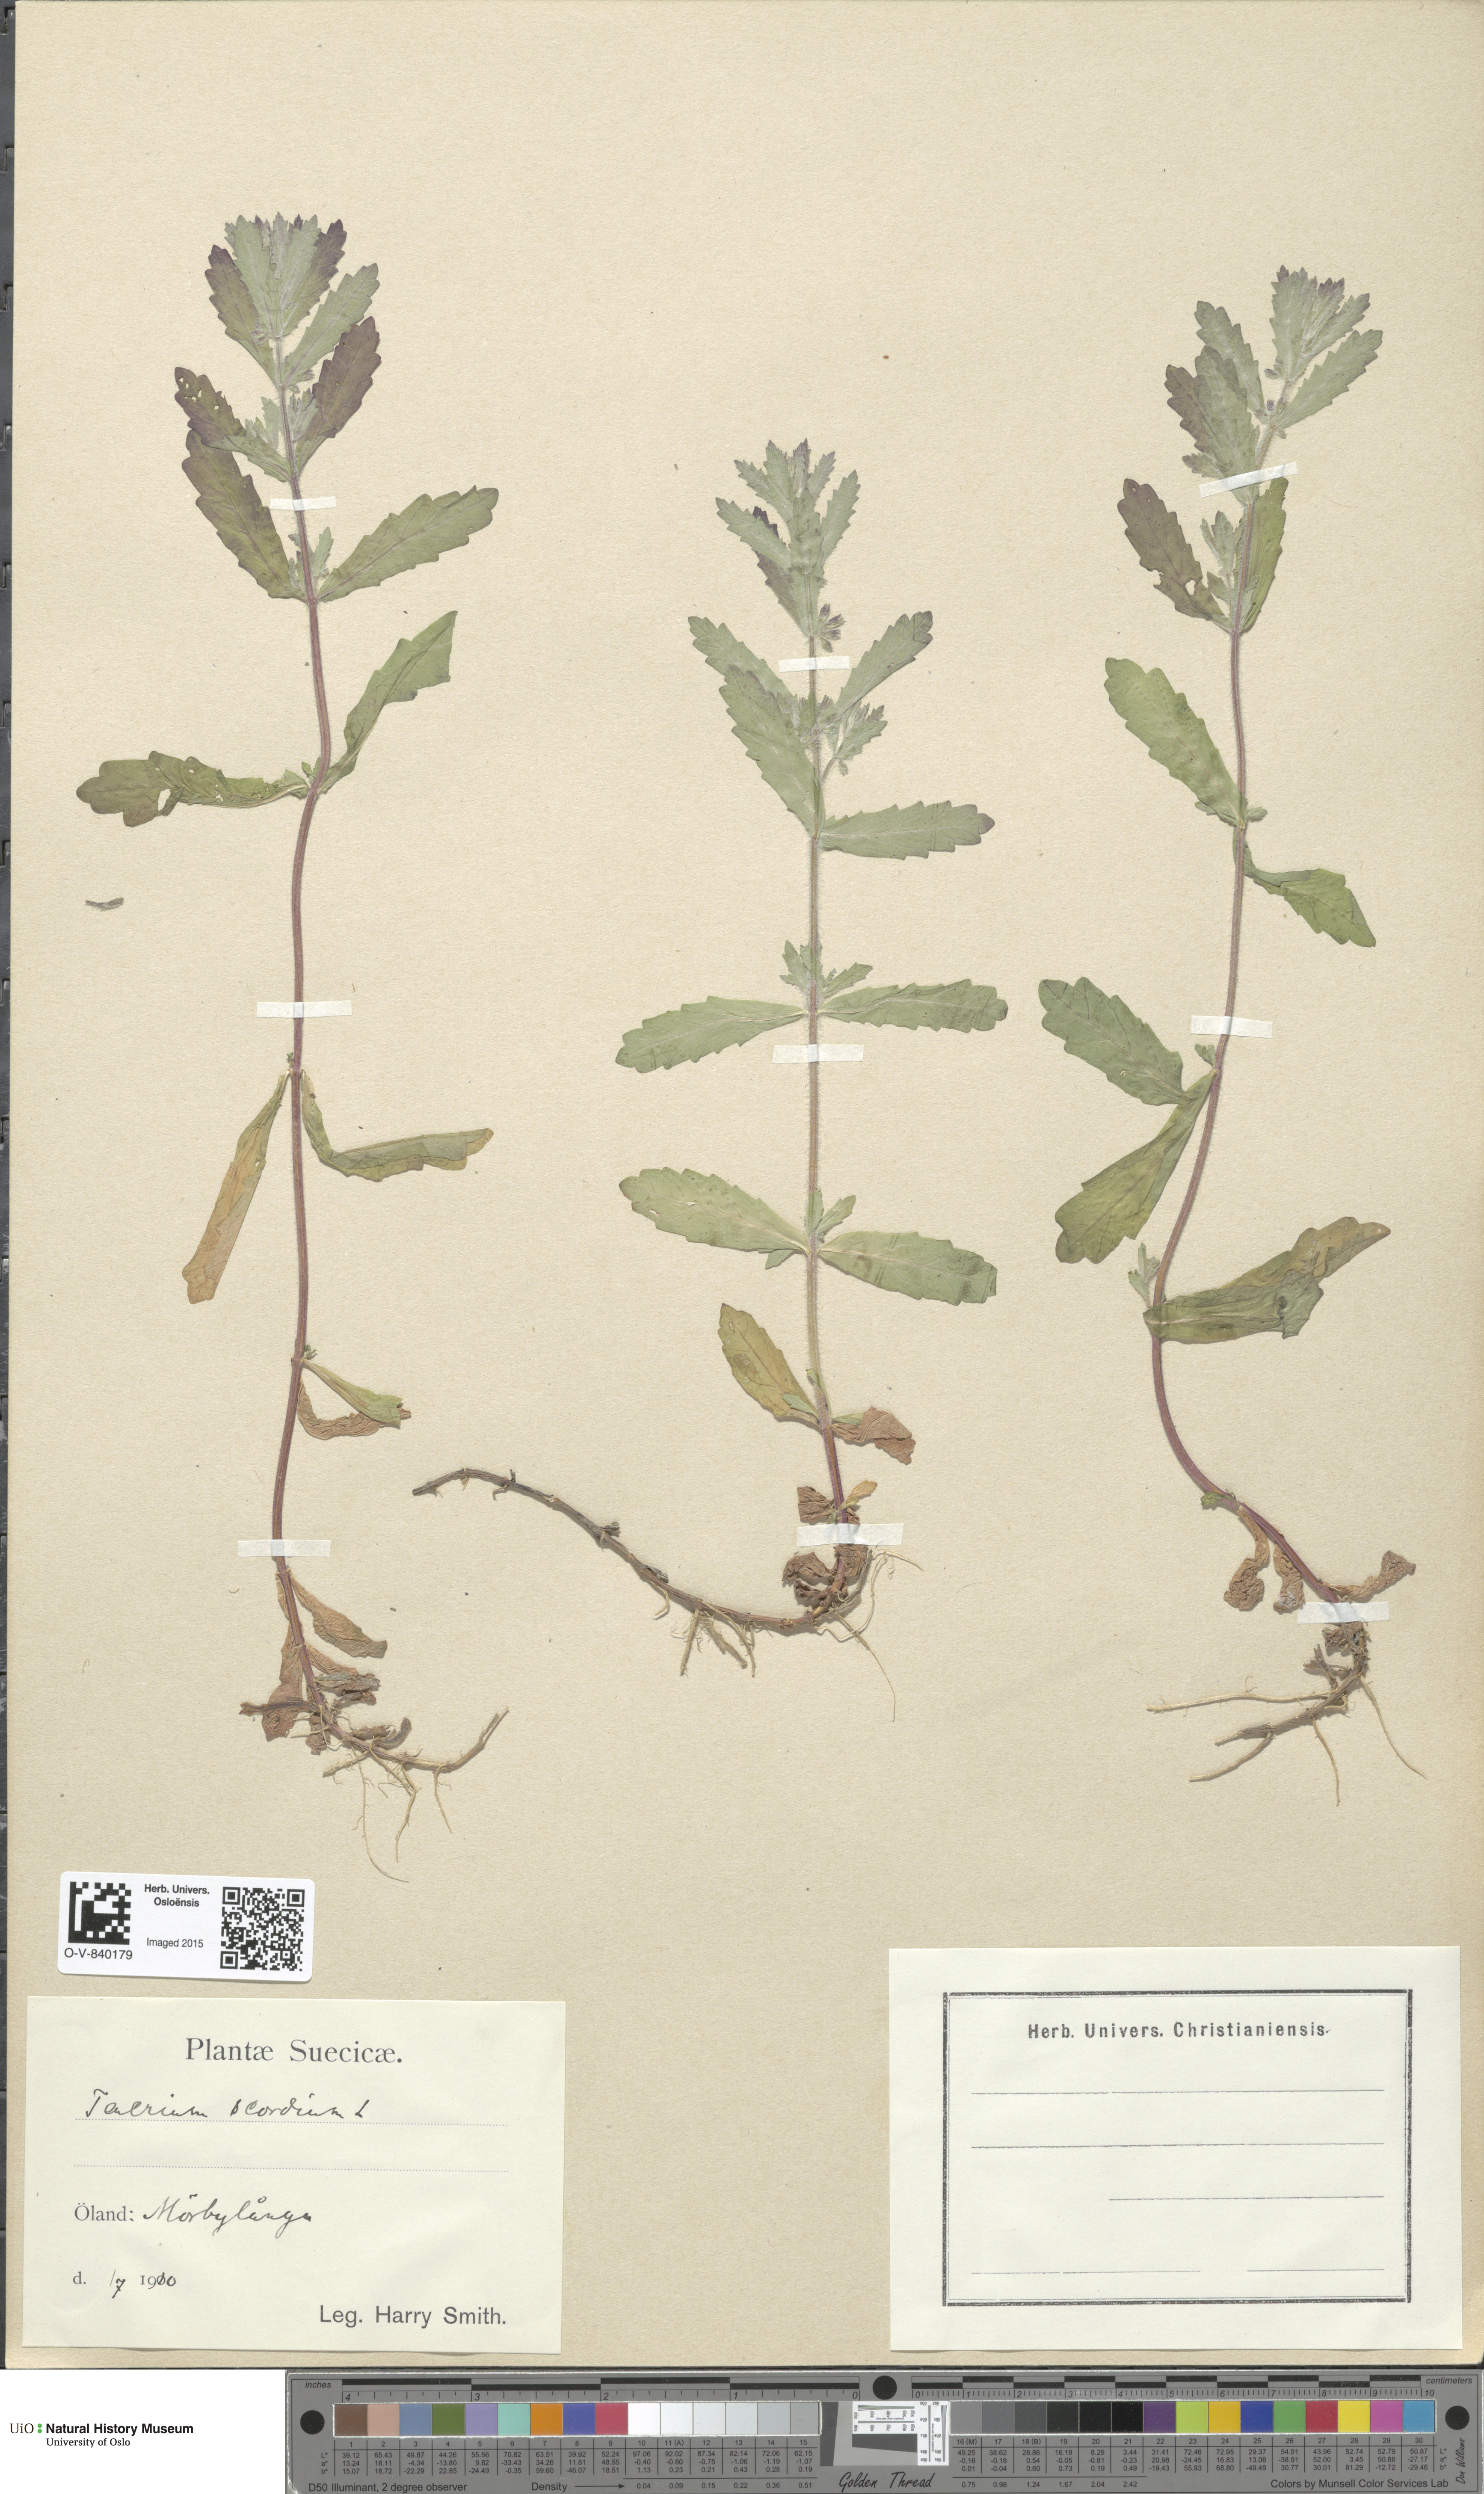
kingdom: Plantae
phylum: Tracheophyta
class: Magnoliopsida
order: Lamiales
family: Lamiaceae
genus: Teucrium
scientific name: Teucrium scordium
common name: Water germander
